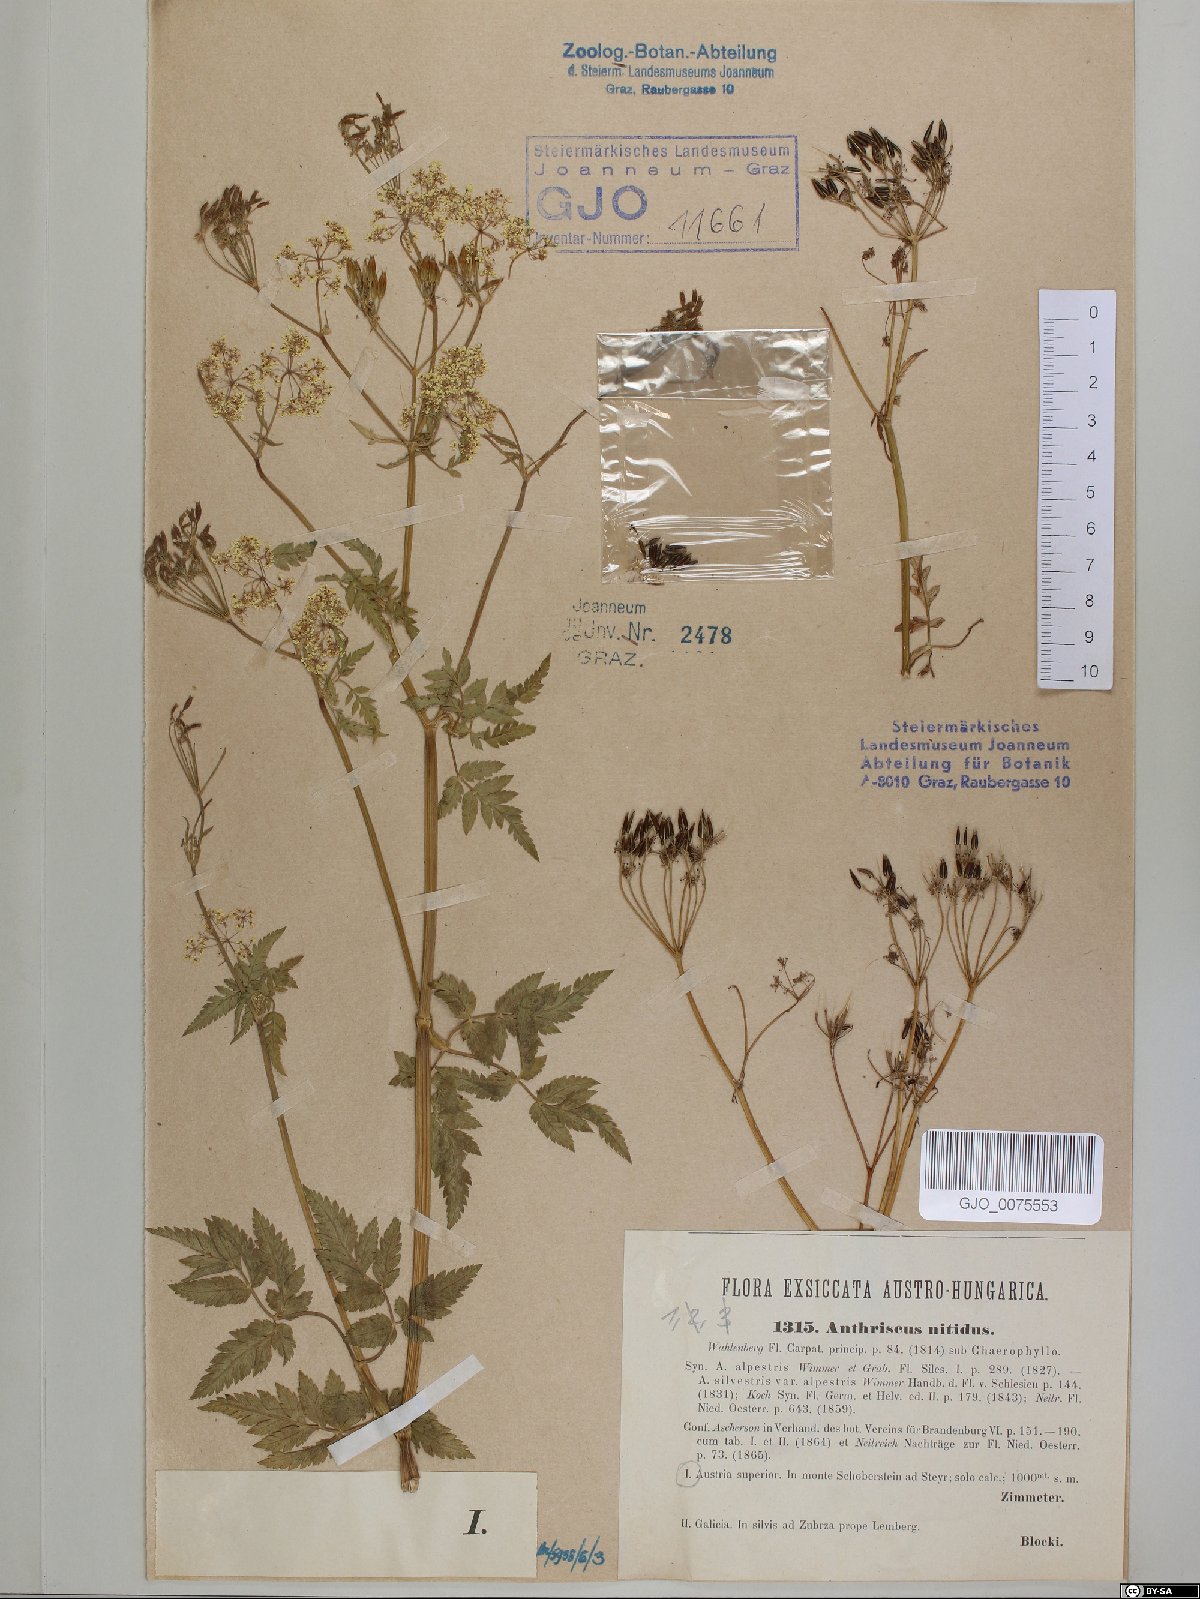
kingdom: Plantae
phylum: Tracheophyta
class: Magnoliopsida
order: Apiales
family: Apiaceae
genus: Anthriscus
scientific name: Anthriscus nitida
